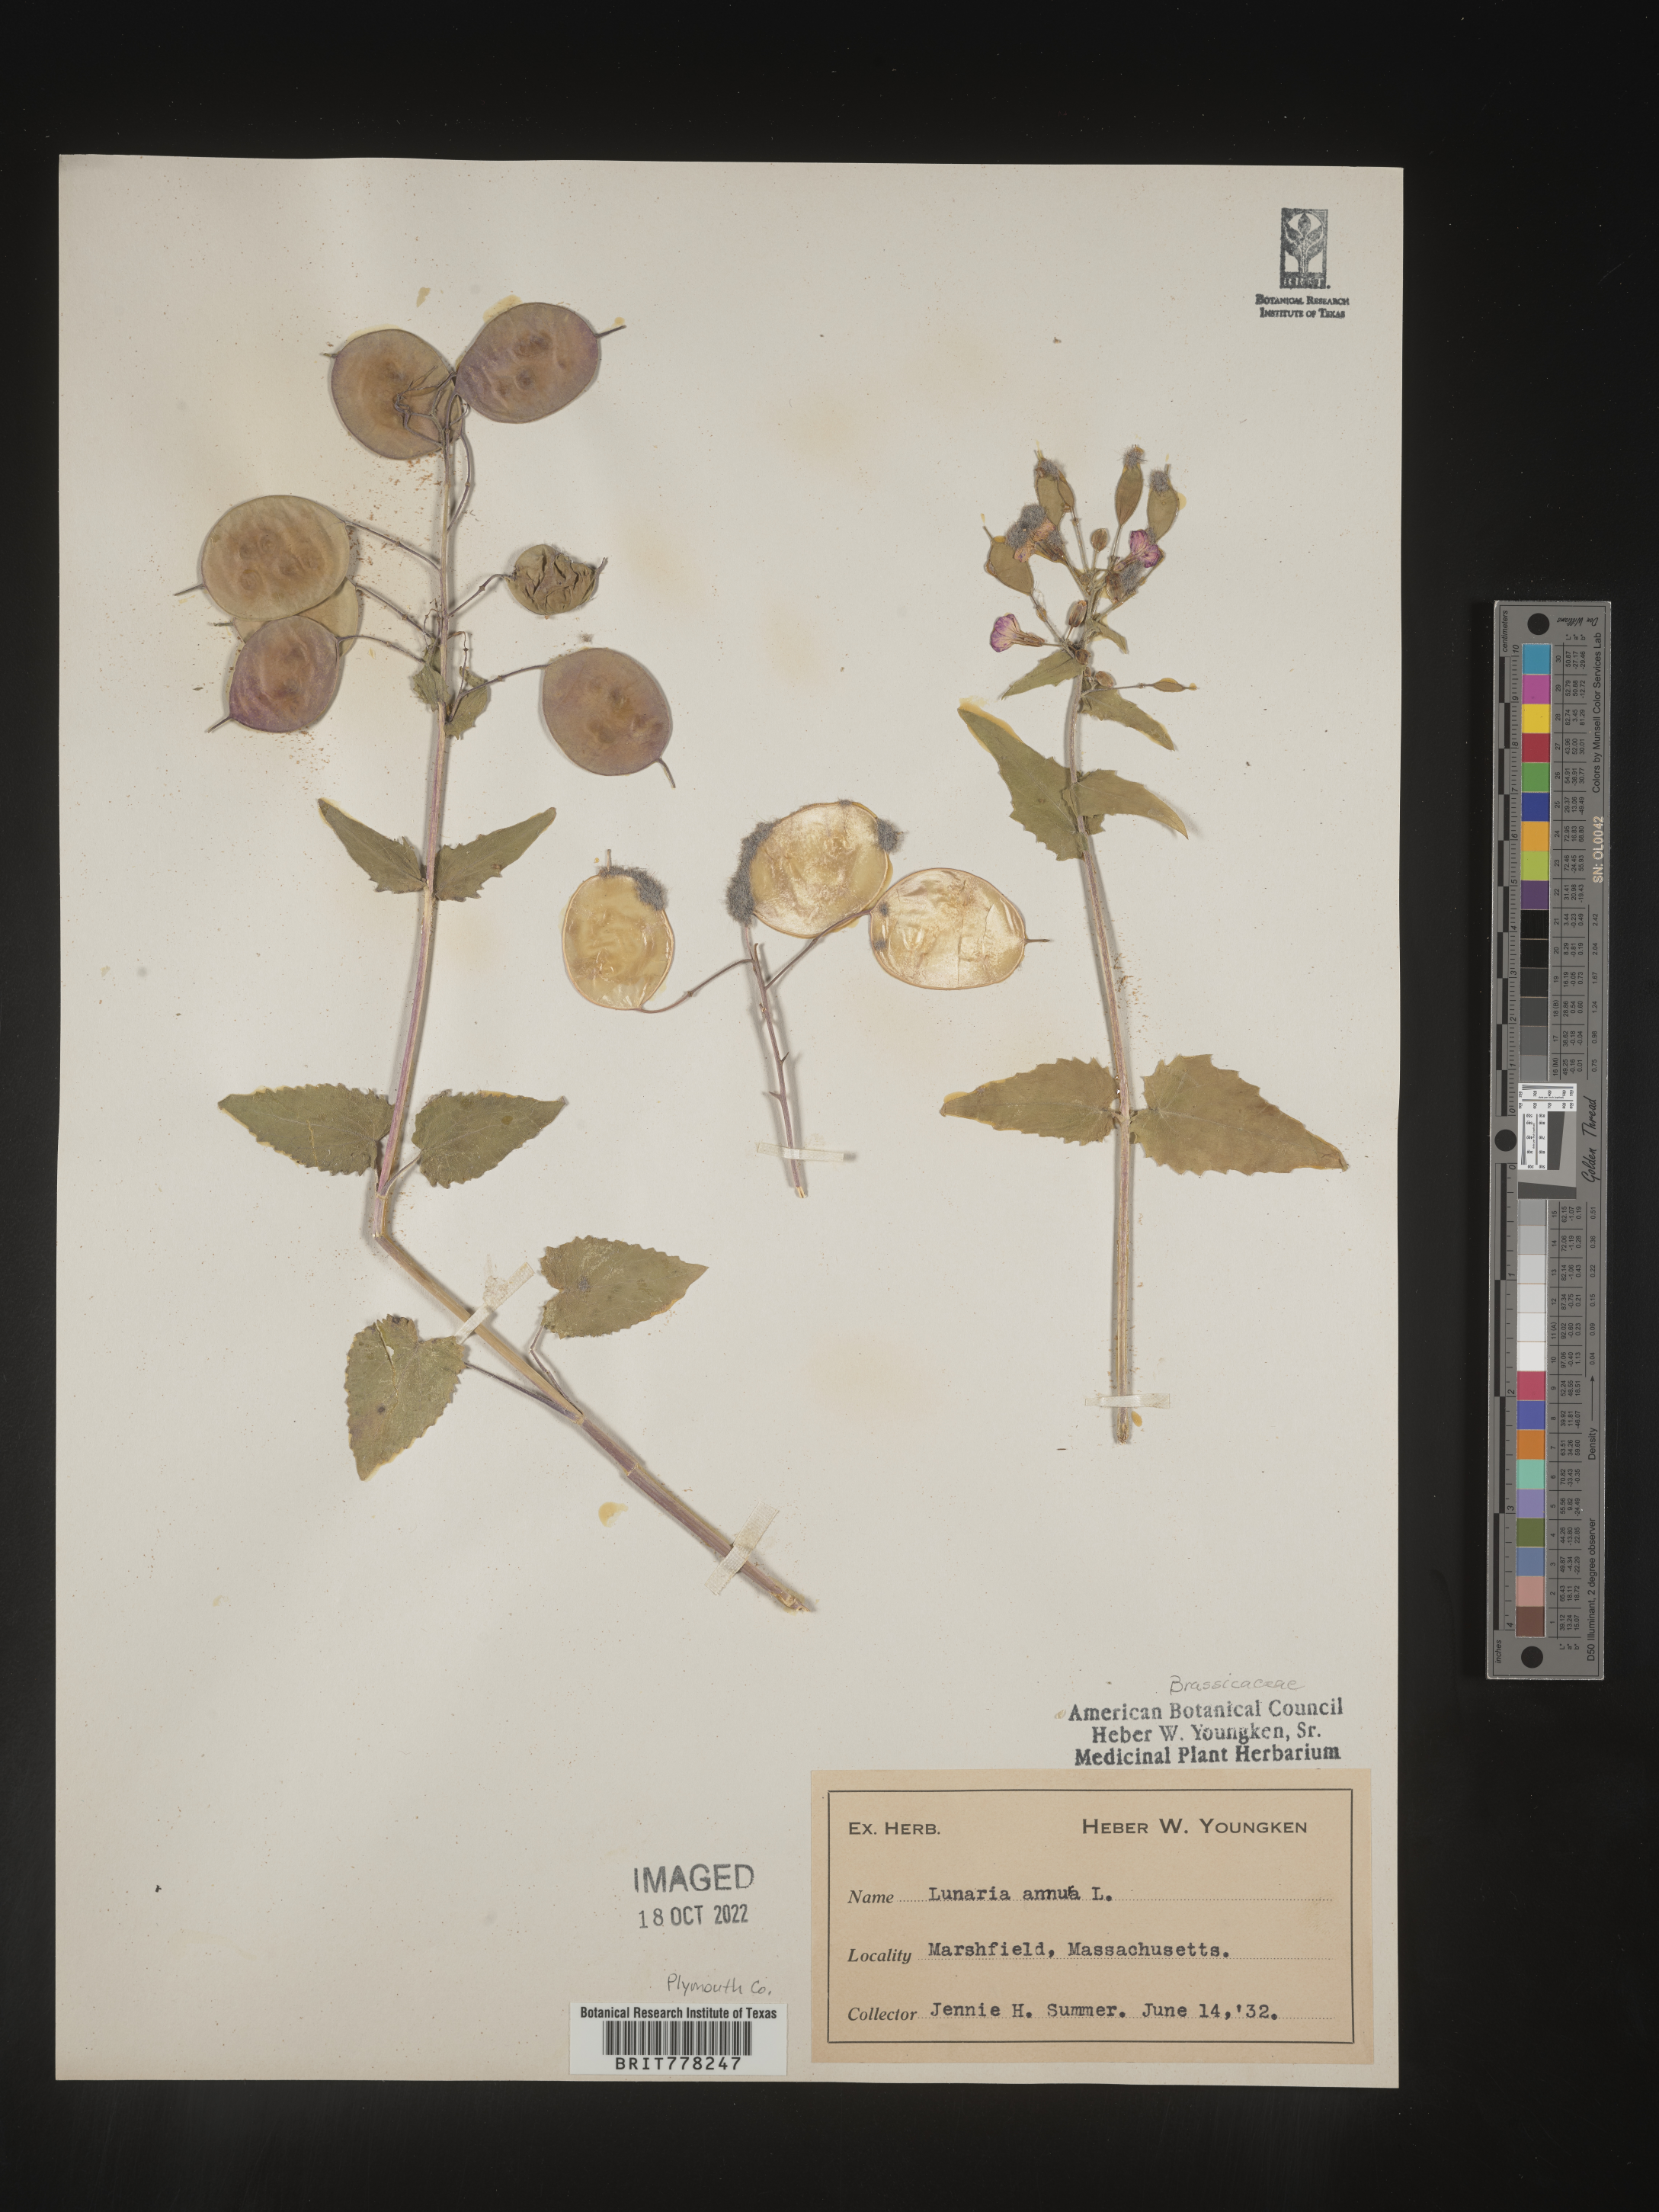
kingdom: Plantae
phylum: Tracheophyta
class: Magnoliopsida
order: Brassicales
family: Brassicaceae
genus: Lunaria
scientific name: Lunaria
